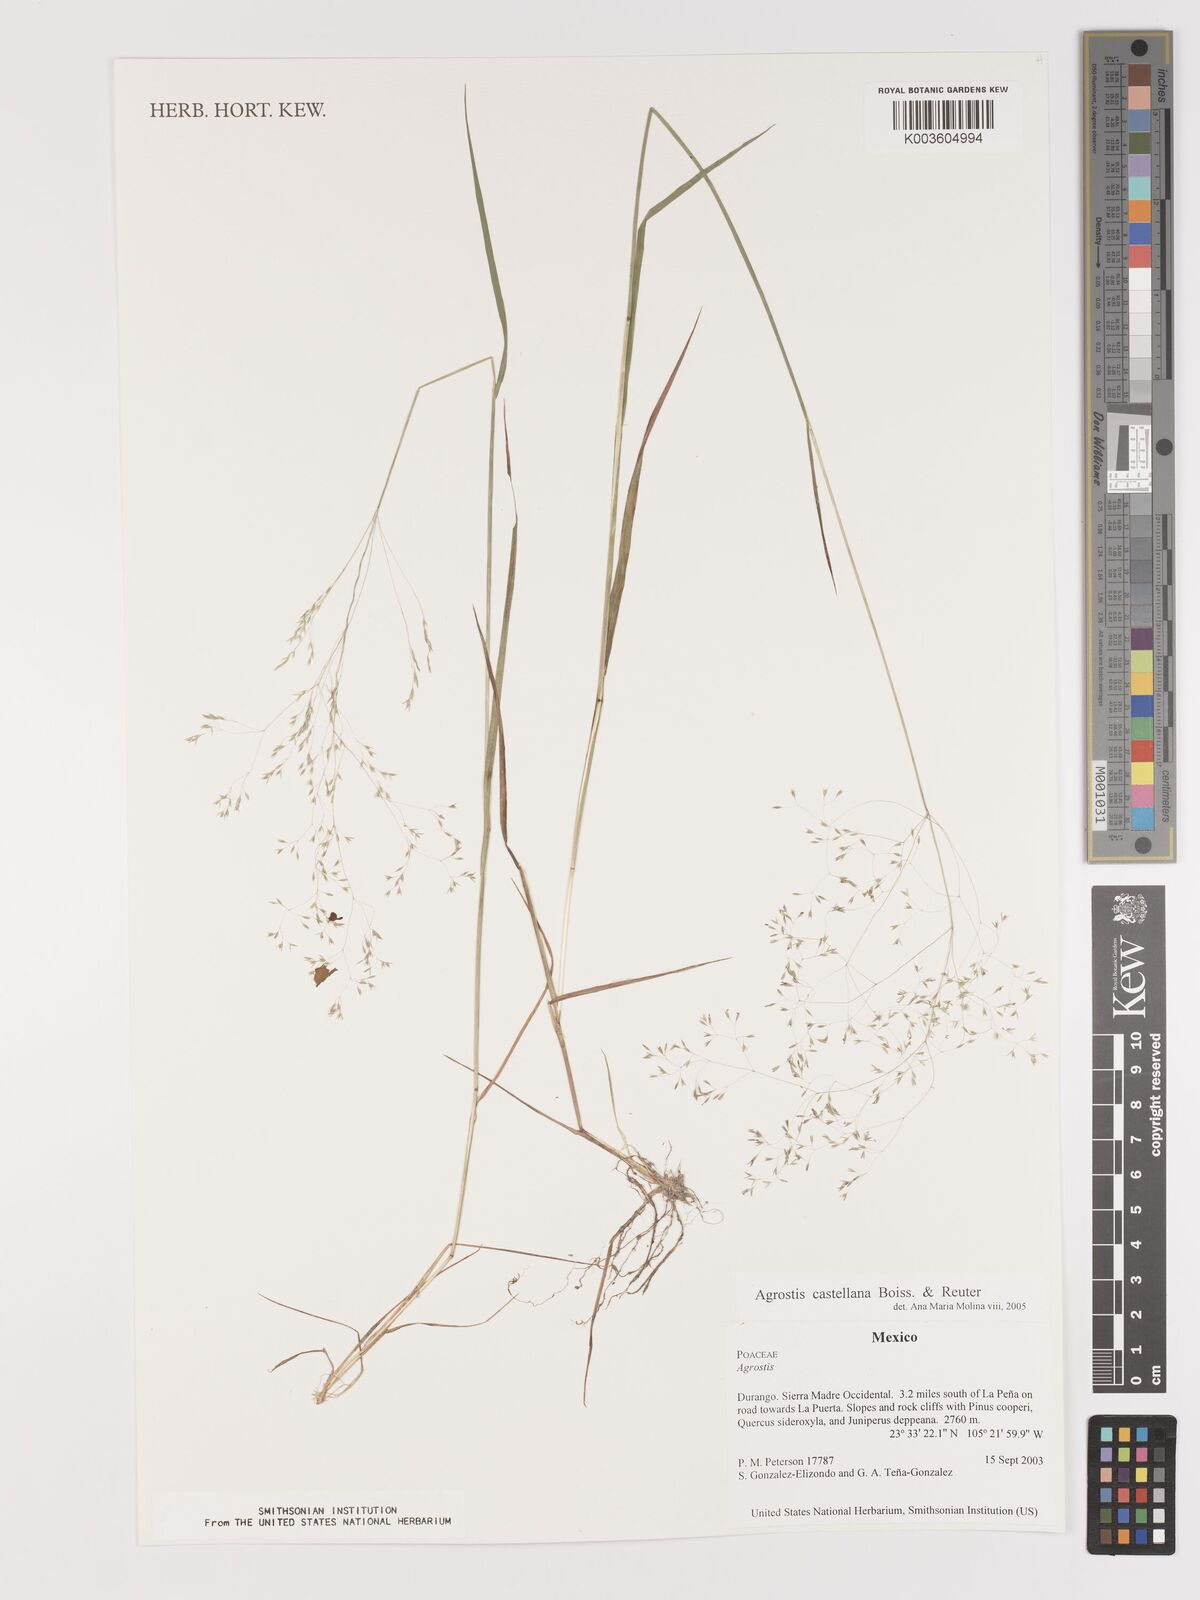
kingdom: Plantae
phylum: Tracheophyta
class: Liliopsida
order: Poales
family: Poaceae
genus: Agrostis
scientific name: Agrostis castellana
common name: Highland bent
